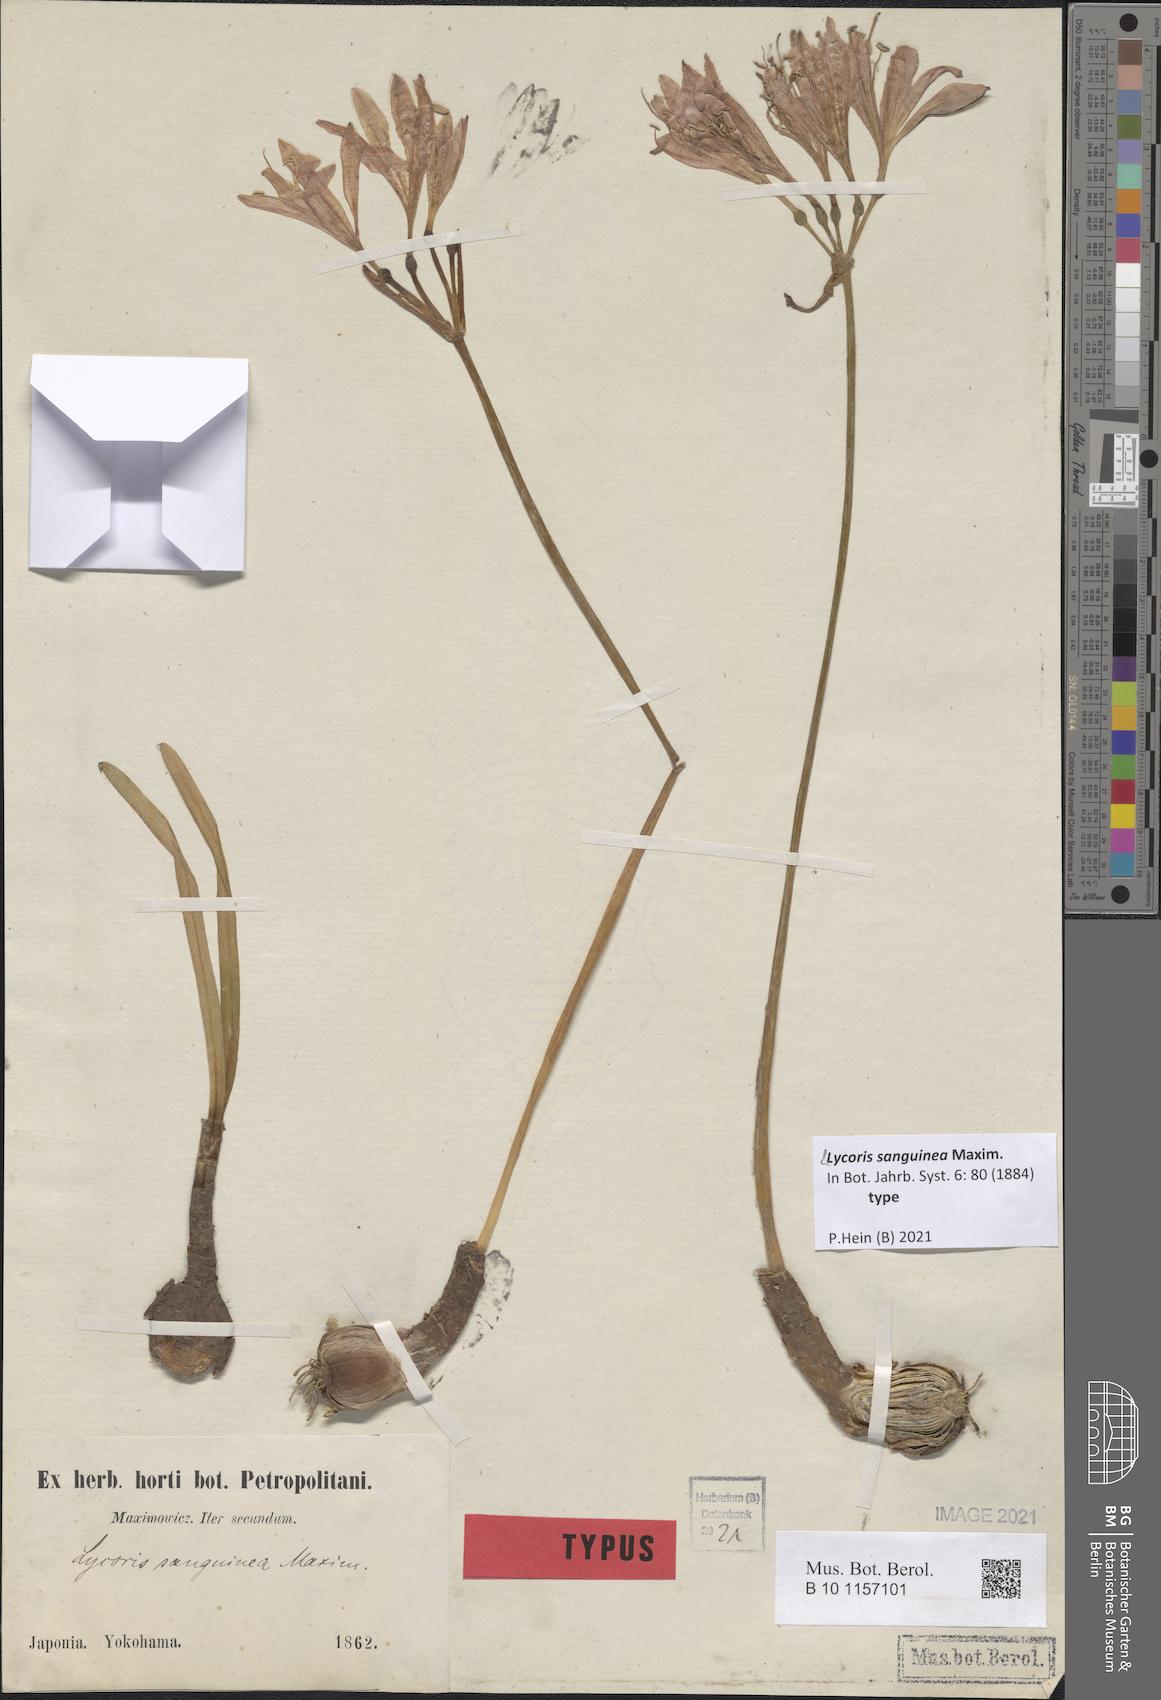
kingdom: Plantae
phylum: Tracheophyta
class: Liliopsida
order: Asparagales
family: Amaryllidaceae
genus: Lycoris
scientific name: Lycoris sanguinea
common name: Spider-lily
